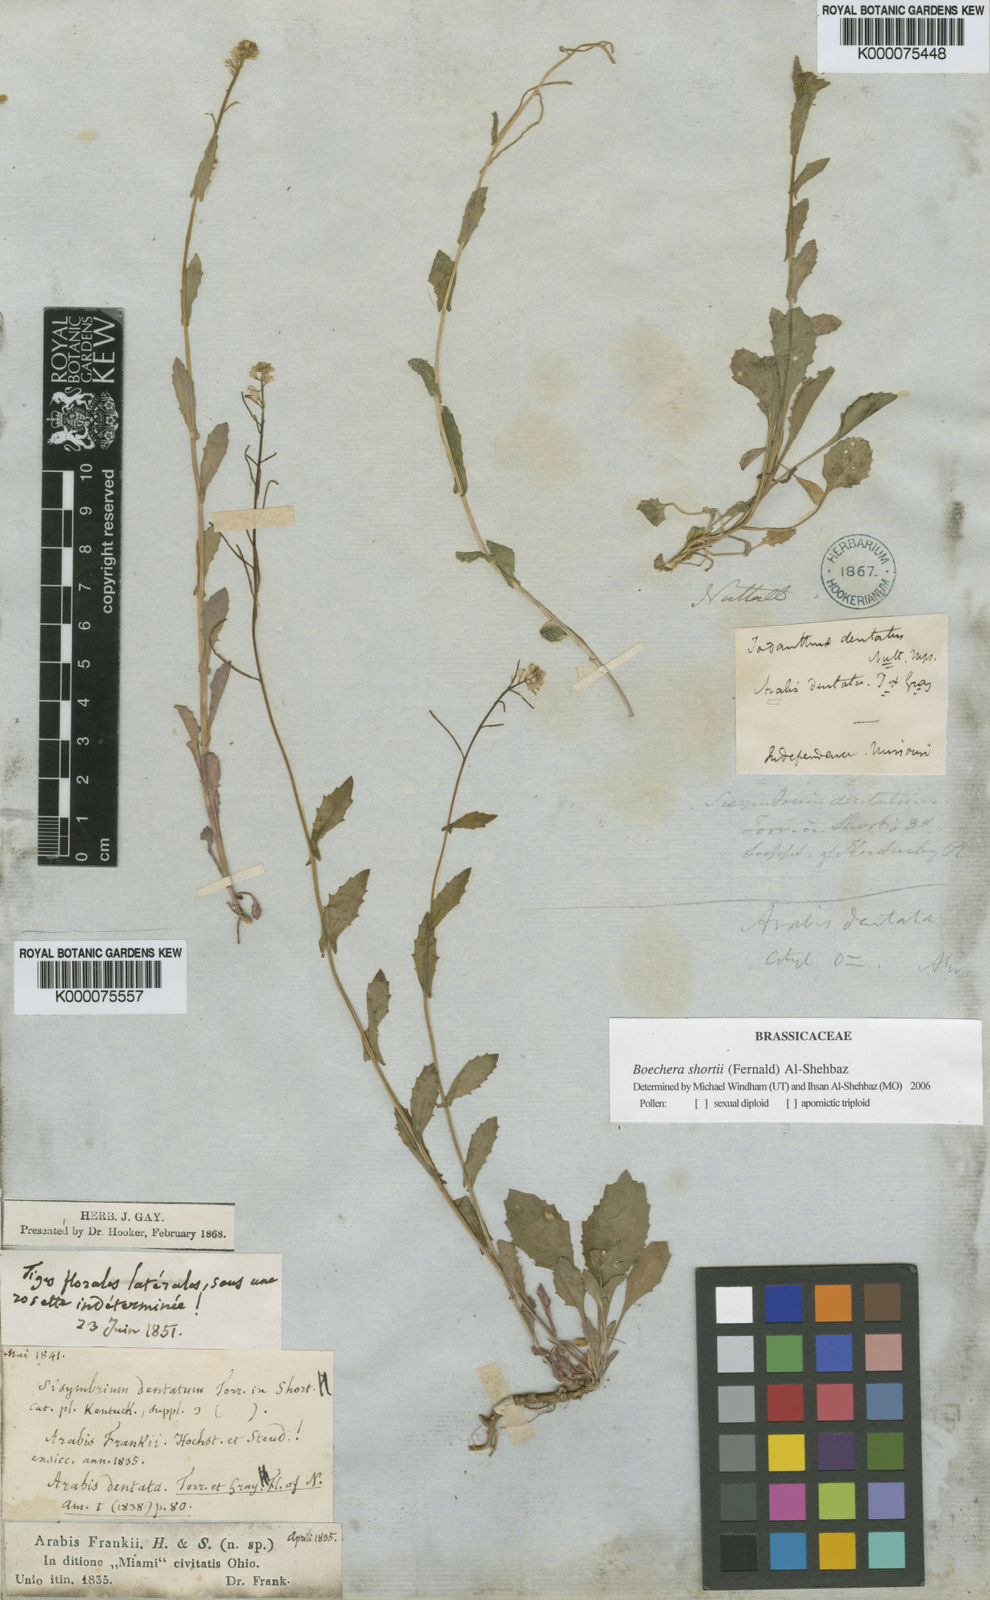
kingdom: Plantae
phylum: Tracheophyta
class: Magnoliopsida
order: Brassicales
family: Brassicaceae
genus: Arabis
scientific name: Arabis
